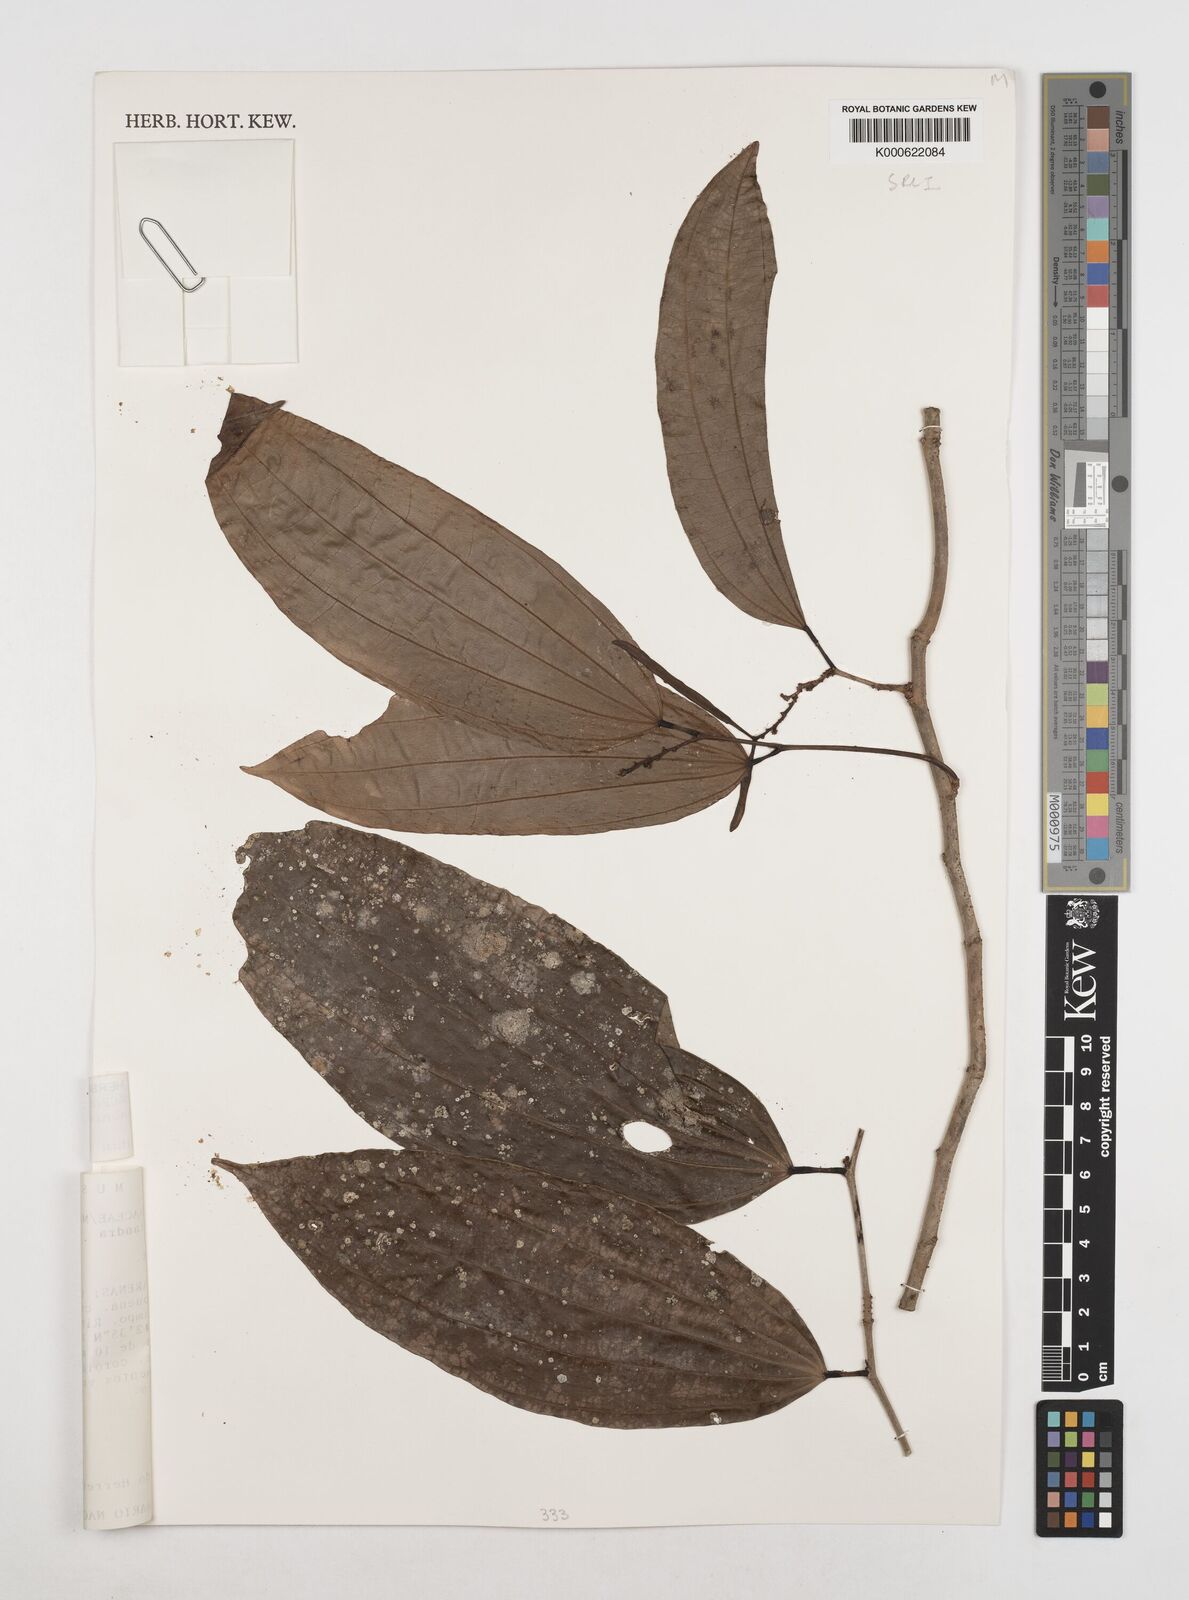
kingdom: Plantae
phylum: Tracheophyta
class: Magnoliopsida
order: Fabales
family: Fabaceae
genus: Bauhinia
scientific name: Bauhinia beguinotii
